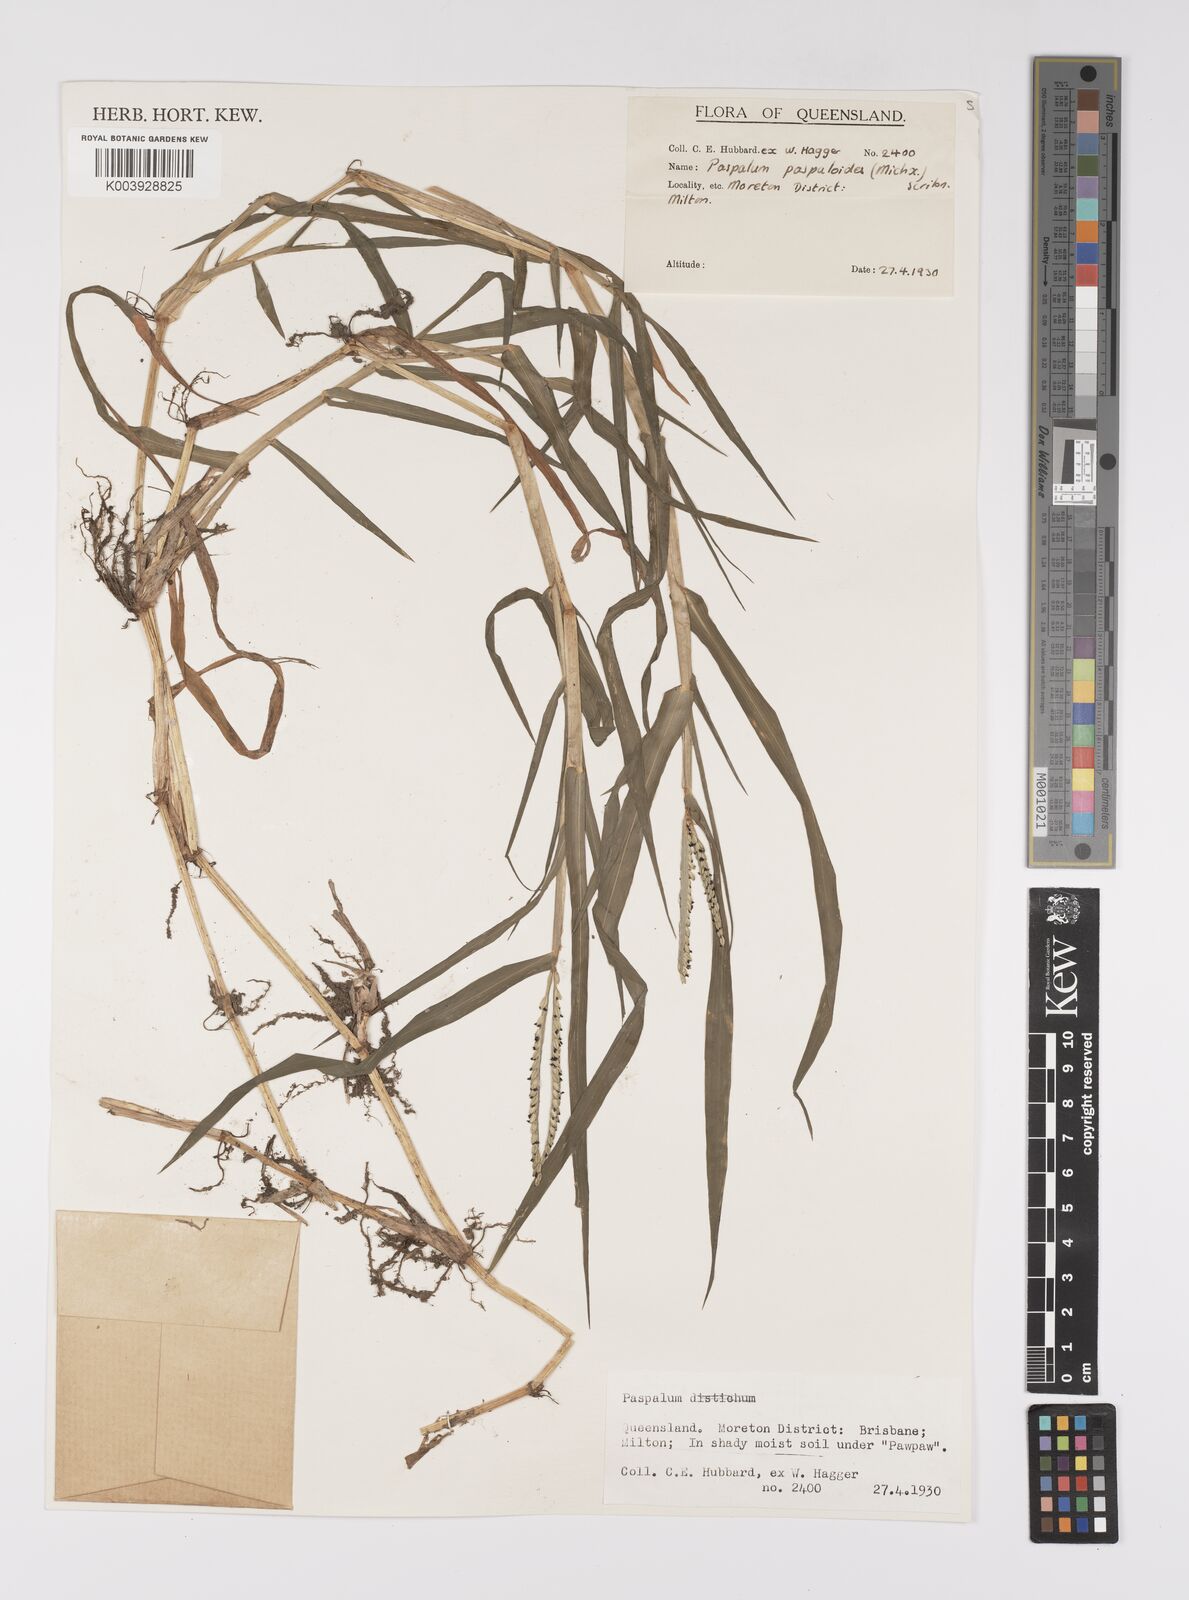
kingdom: Plantae
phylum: Tracheophyta
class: Liliopsida
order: Poales
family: Poaceae
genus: Paspalum
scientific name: Paspalum distichum
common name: Knotgrass
